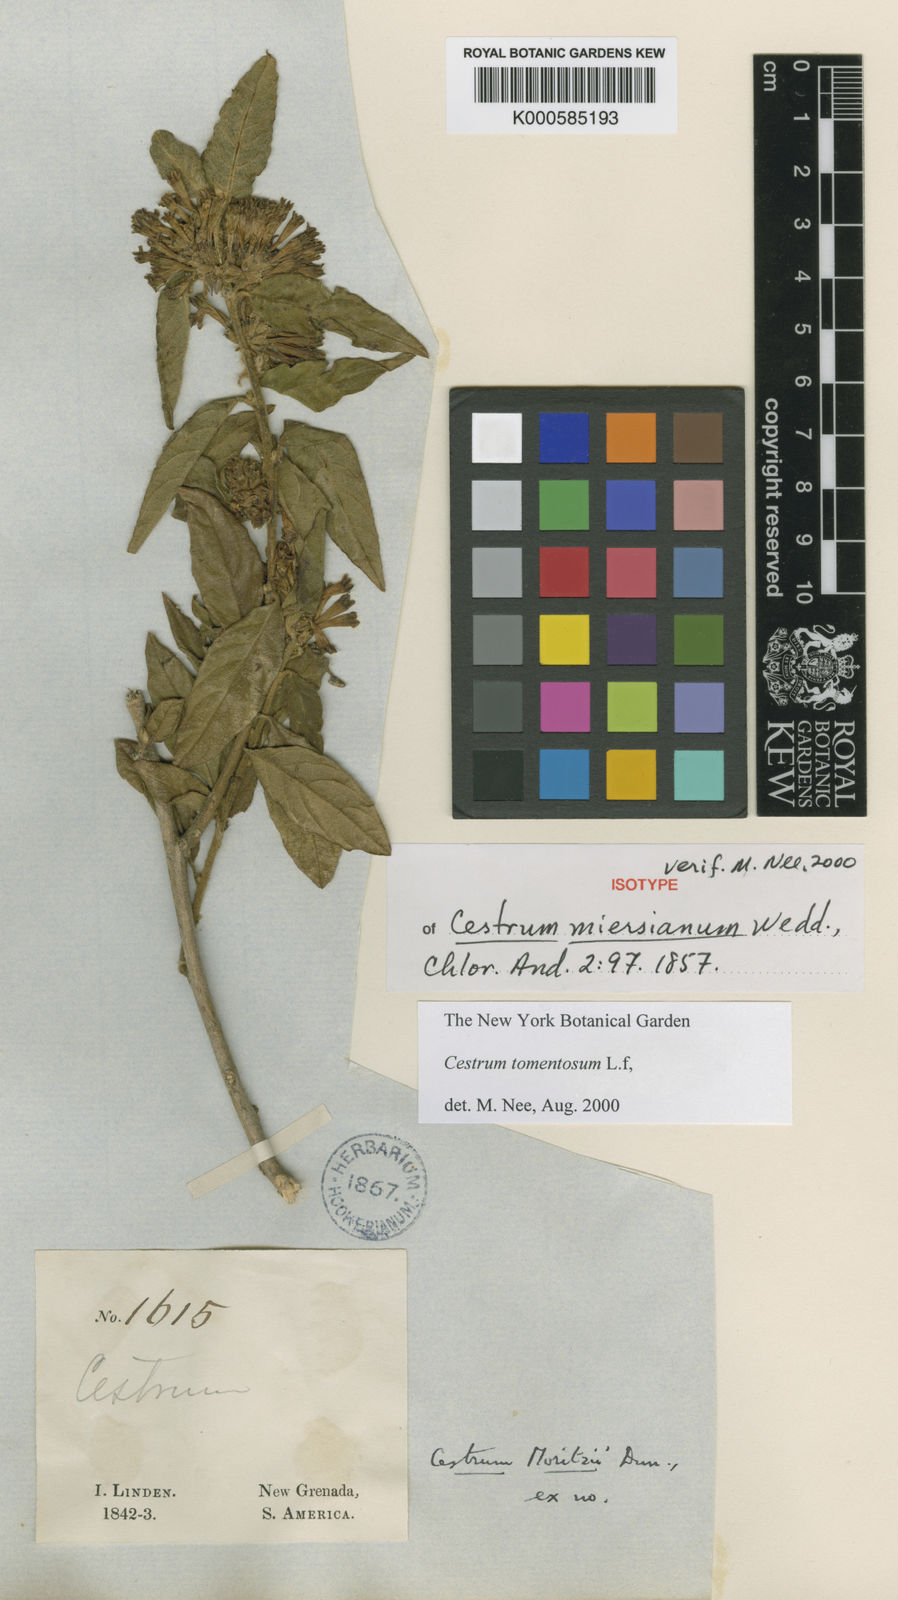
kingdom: Plantae
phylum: Tracheophyta
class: Magnoliopsida
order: Solanales
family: Solanaceae
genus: Cestrum
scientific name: Cestrum tomentosum
